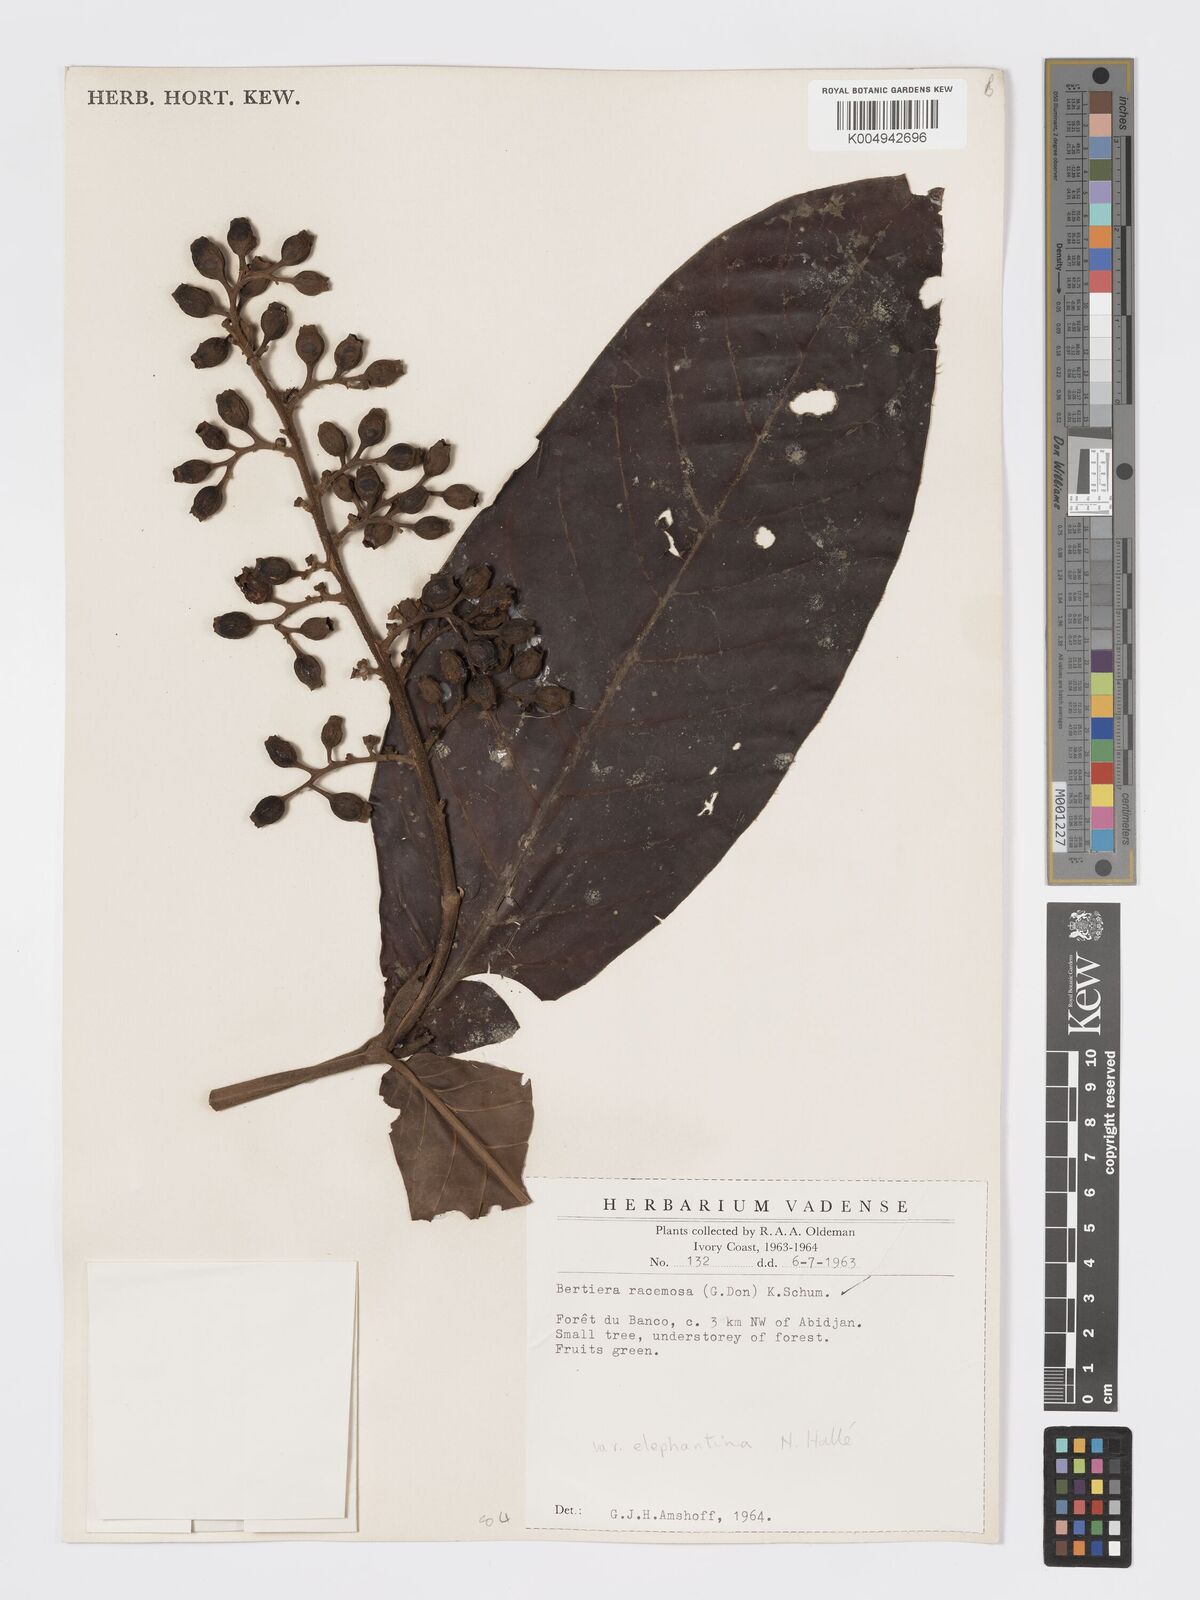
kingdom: Plantae
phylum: Tracheophyta
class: Magnoliopsida
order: Gentianales
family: Rubiaceae
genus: Bertiera
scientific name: Bertiera racemosa
